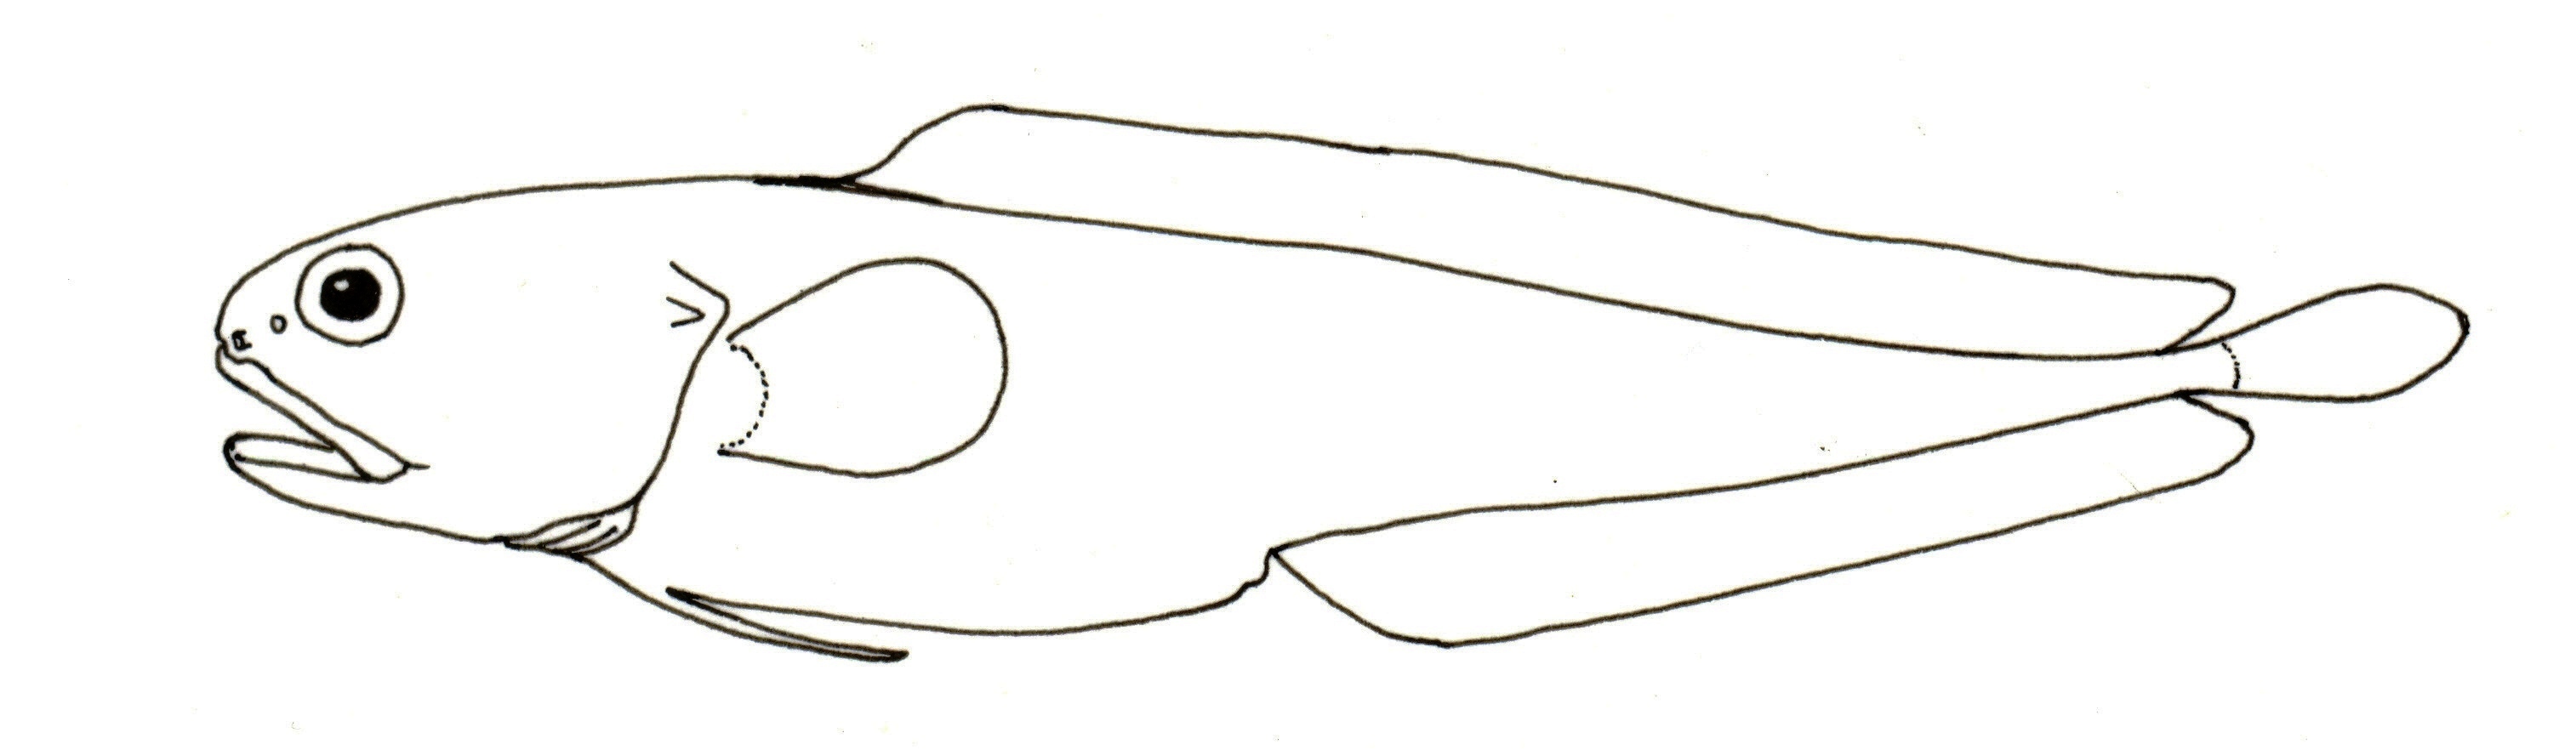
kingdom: Animalia
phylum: Chordata
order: Ophidiiformes
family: Bythitidae
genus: Brosmophyciops
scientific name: Brosmophyciops pautzkei
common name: Slimy cuskeel
